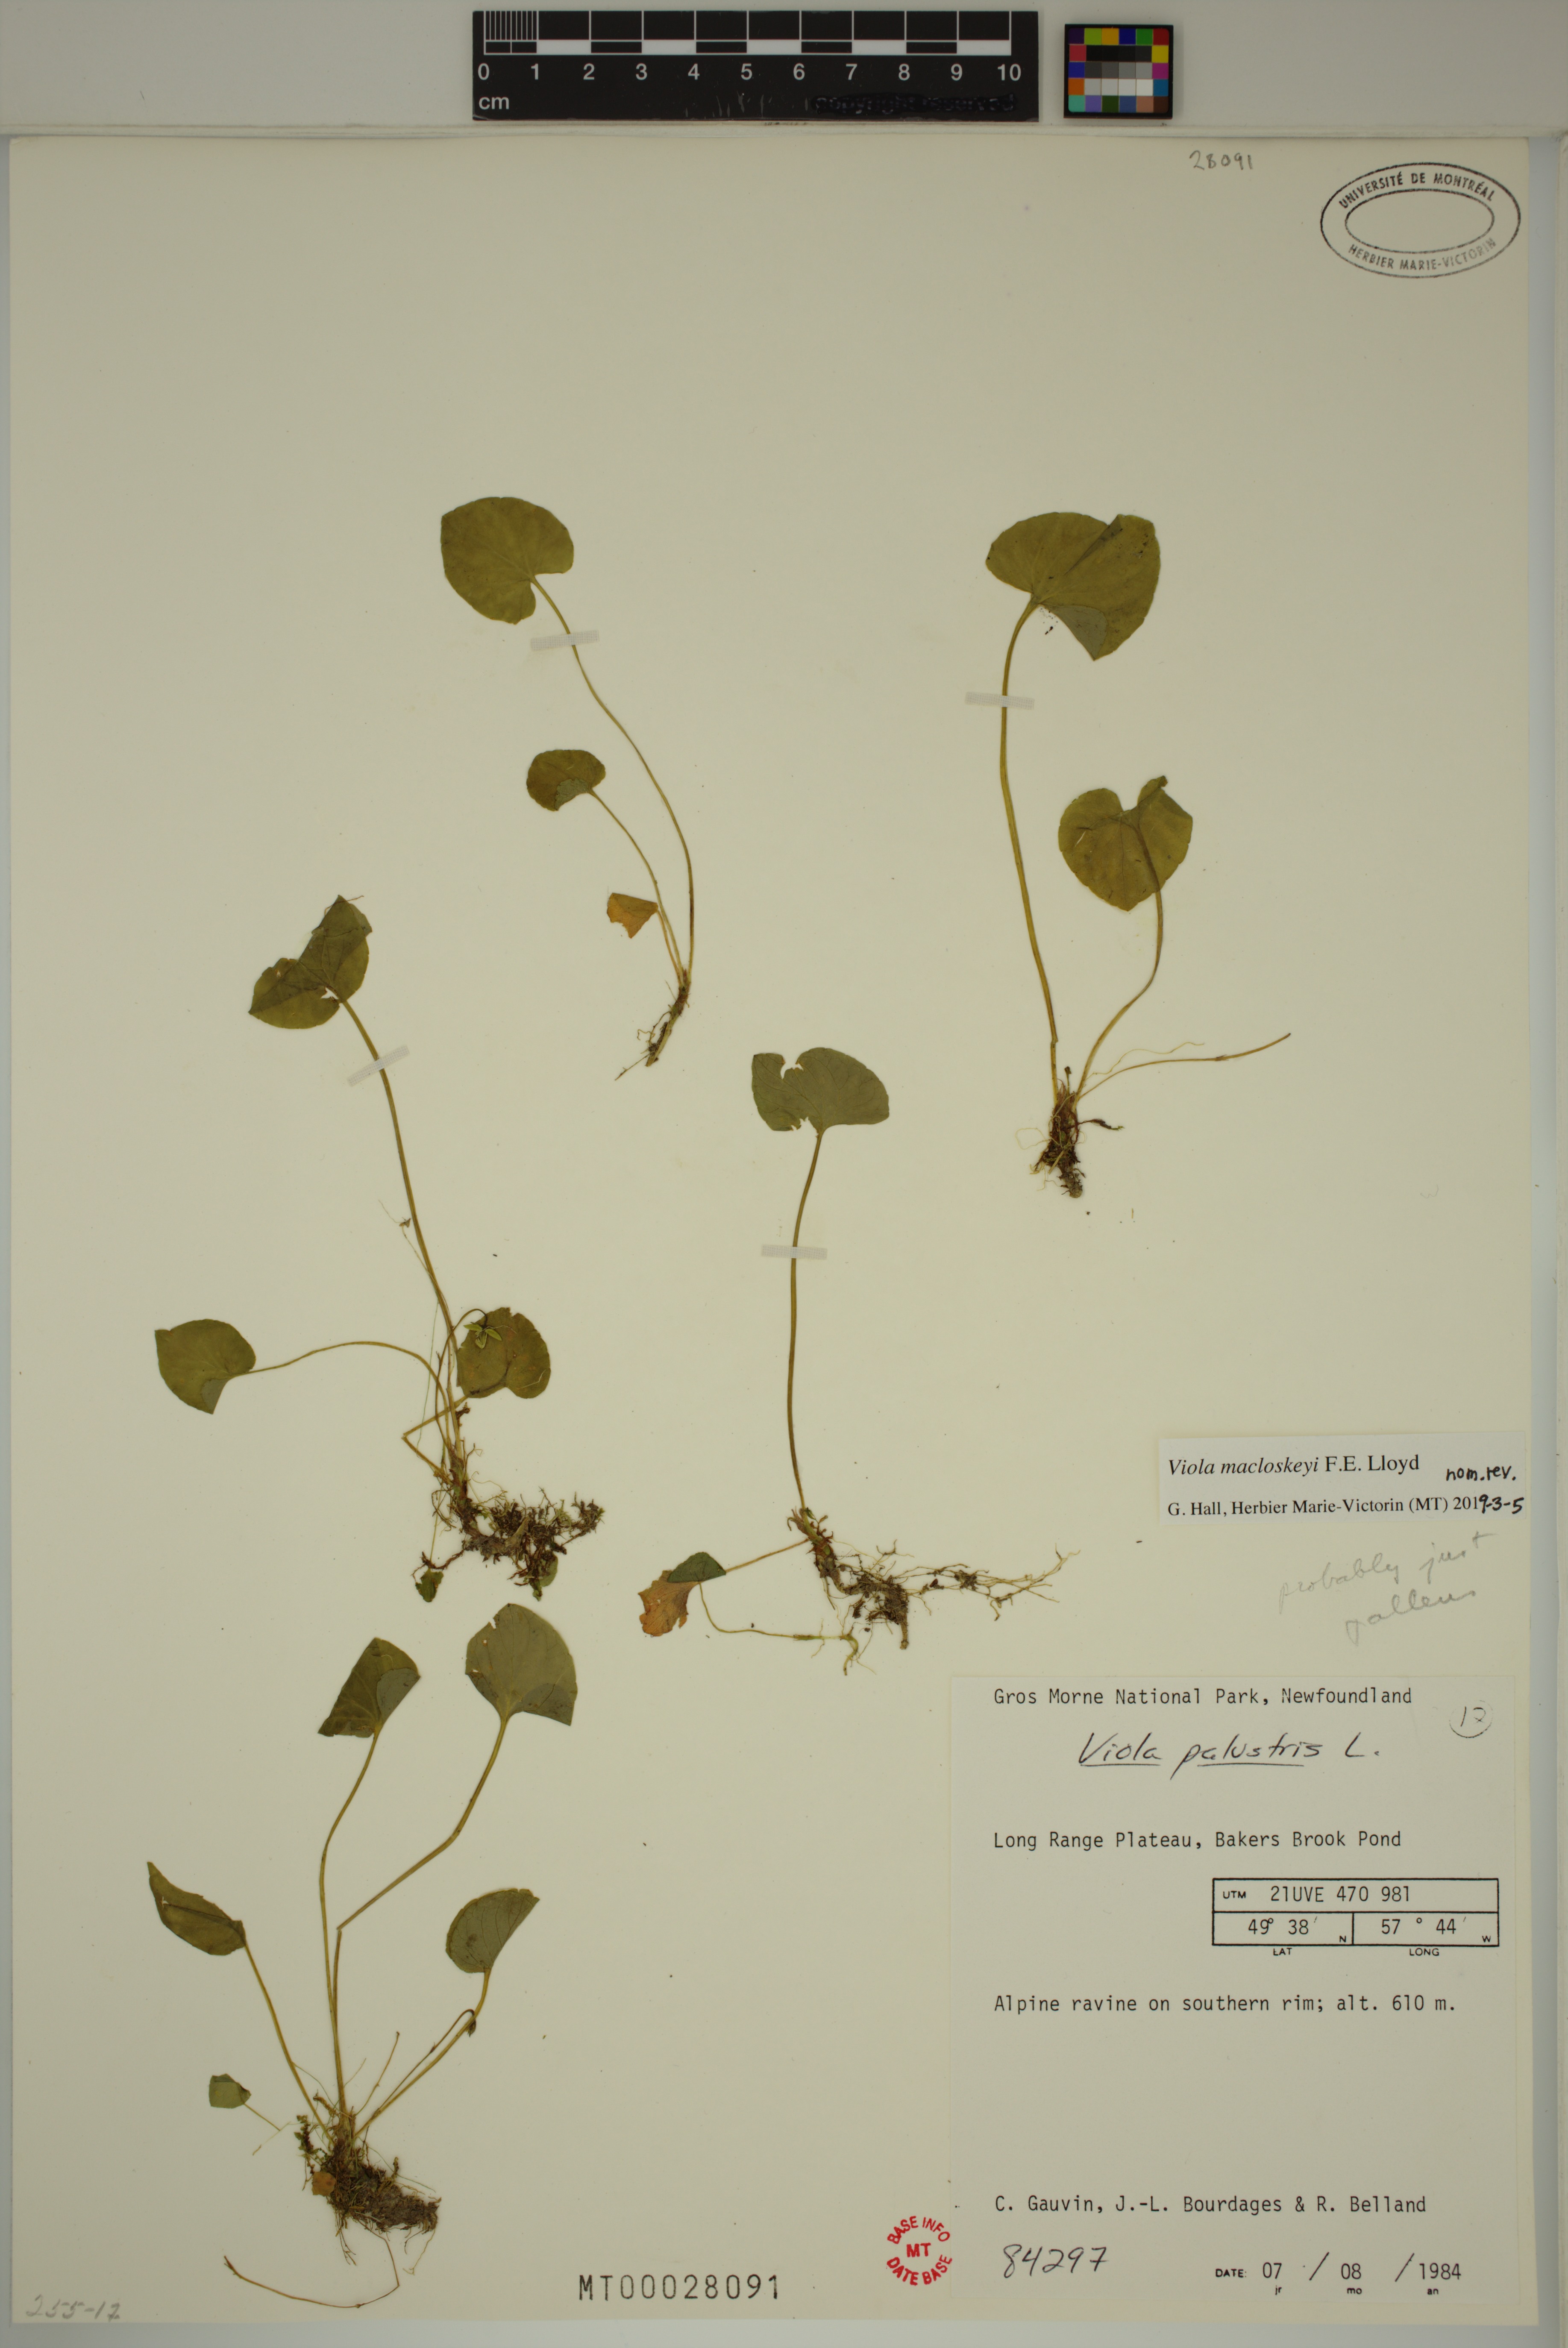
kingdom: Plantae
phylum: Tracheophyta
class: Magnoliopsida
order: Malpighiales
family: Violaceae
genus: Viola
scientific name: Viola macloskeyi
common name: Macloskey's violet
